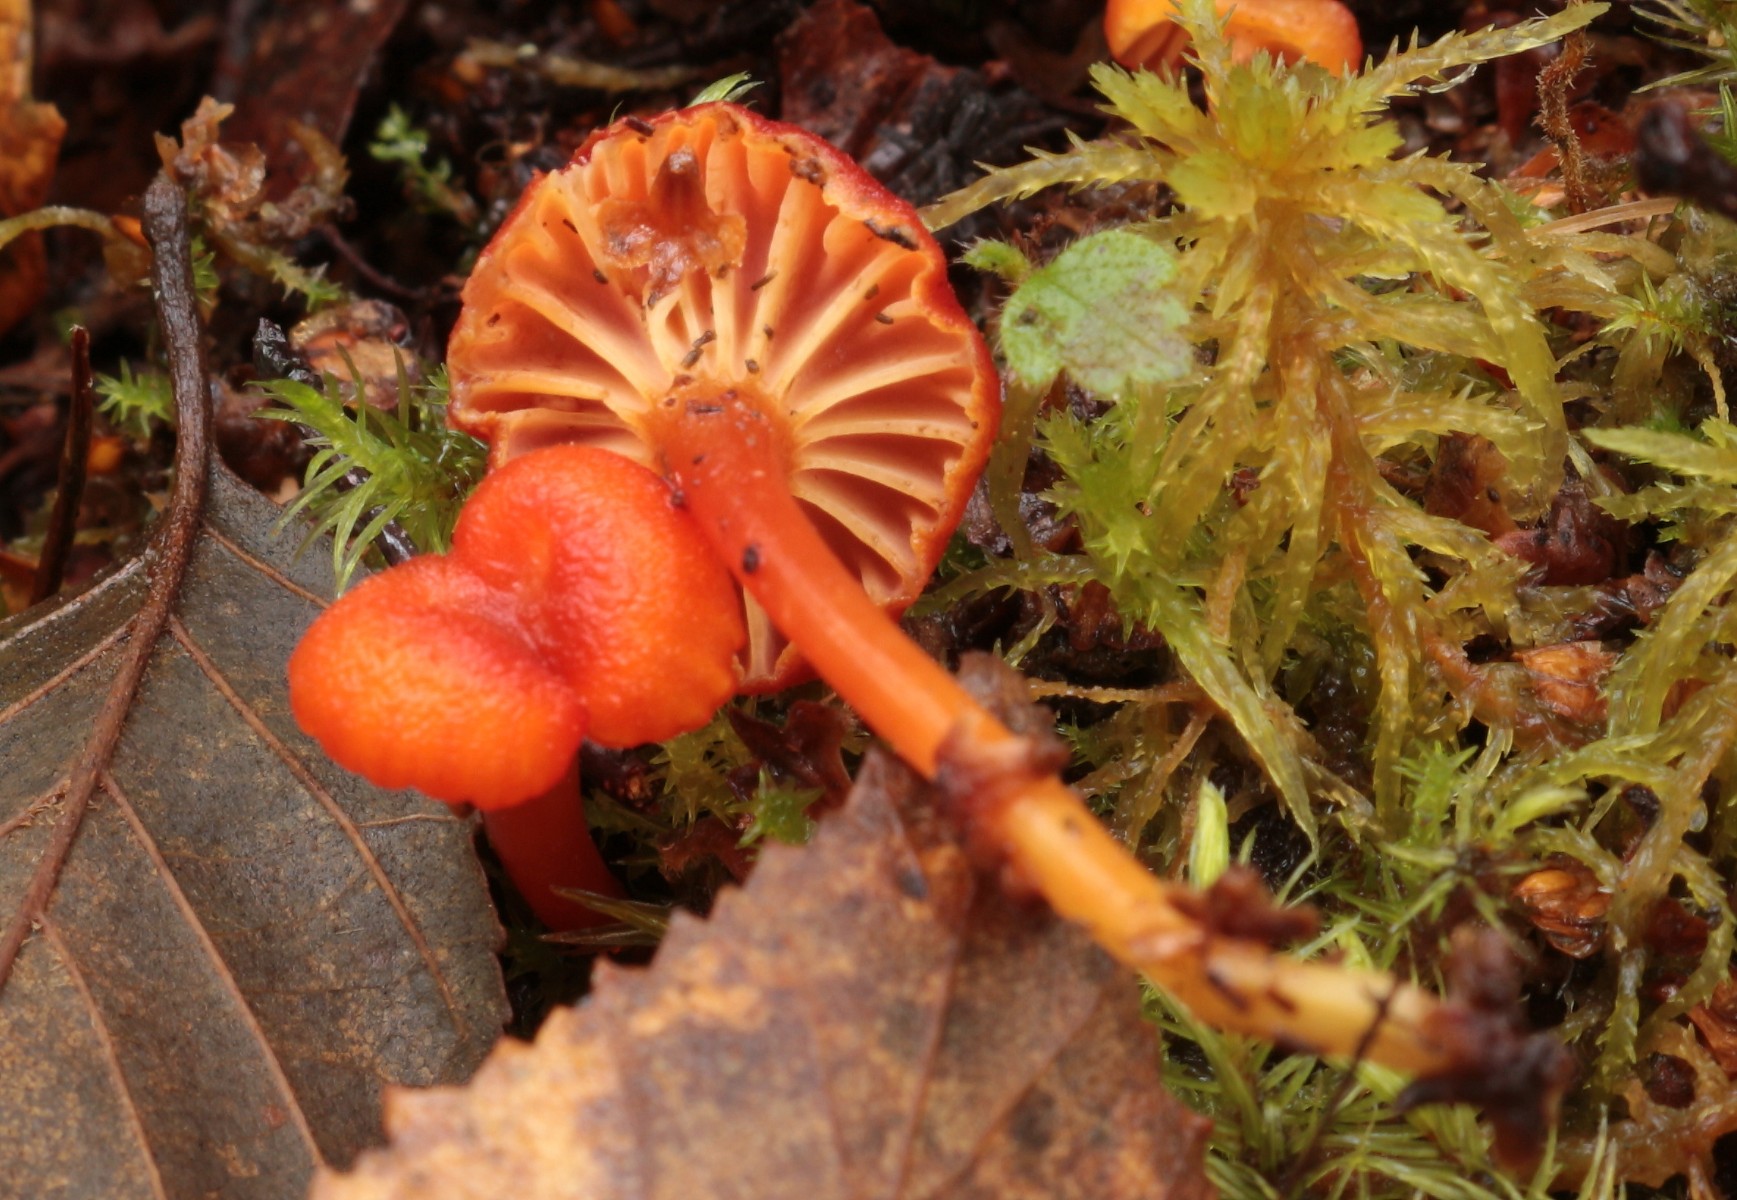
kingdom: Fungi
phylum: Basidiomycota
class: Agaricomycetes
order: Agaricales
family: Hygrophoraceae
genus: Hygrocybe
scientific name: Hygrocybe cantharellus
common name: kantarel-vokshat
